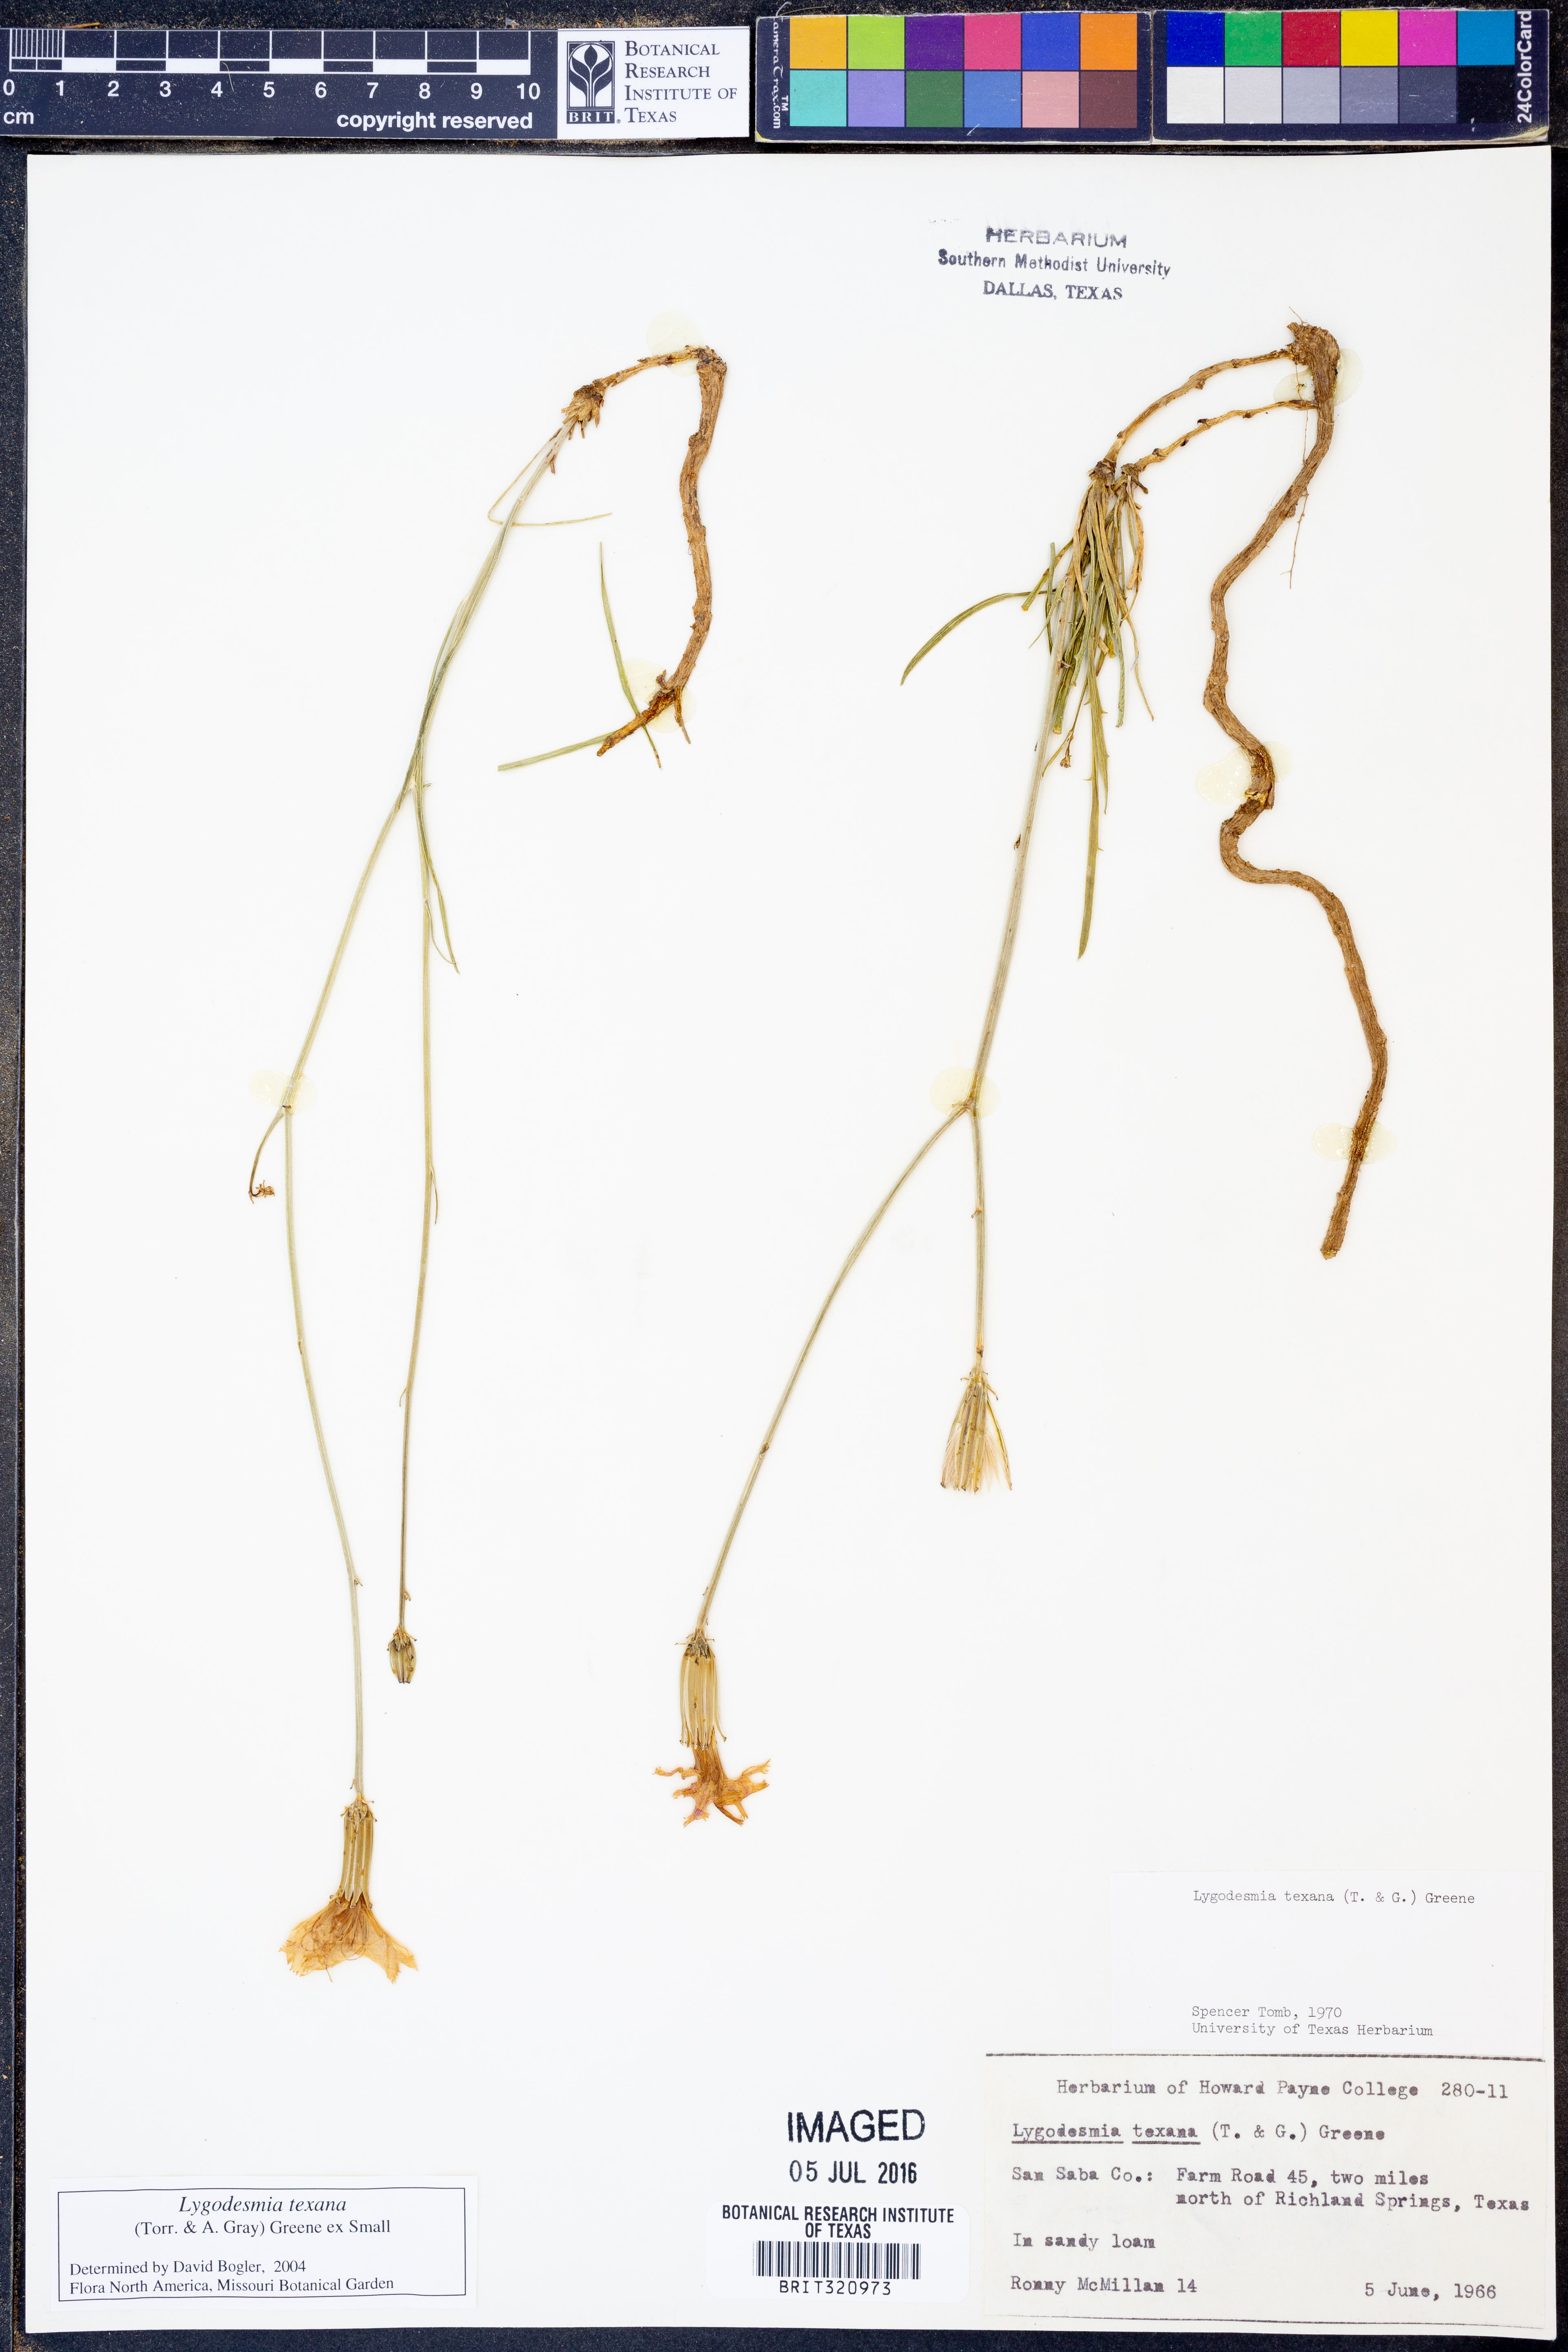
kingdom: Plantae
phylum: Tracheophyta
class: Magnoliopsida
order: Asterales
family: Asteraceae
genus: Lygodesmia
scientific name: Lygodesmia texana
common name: Texas skeleton-plant
